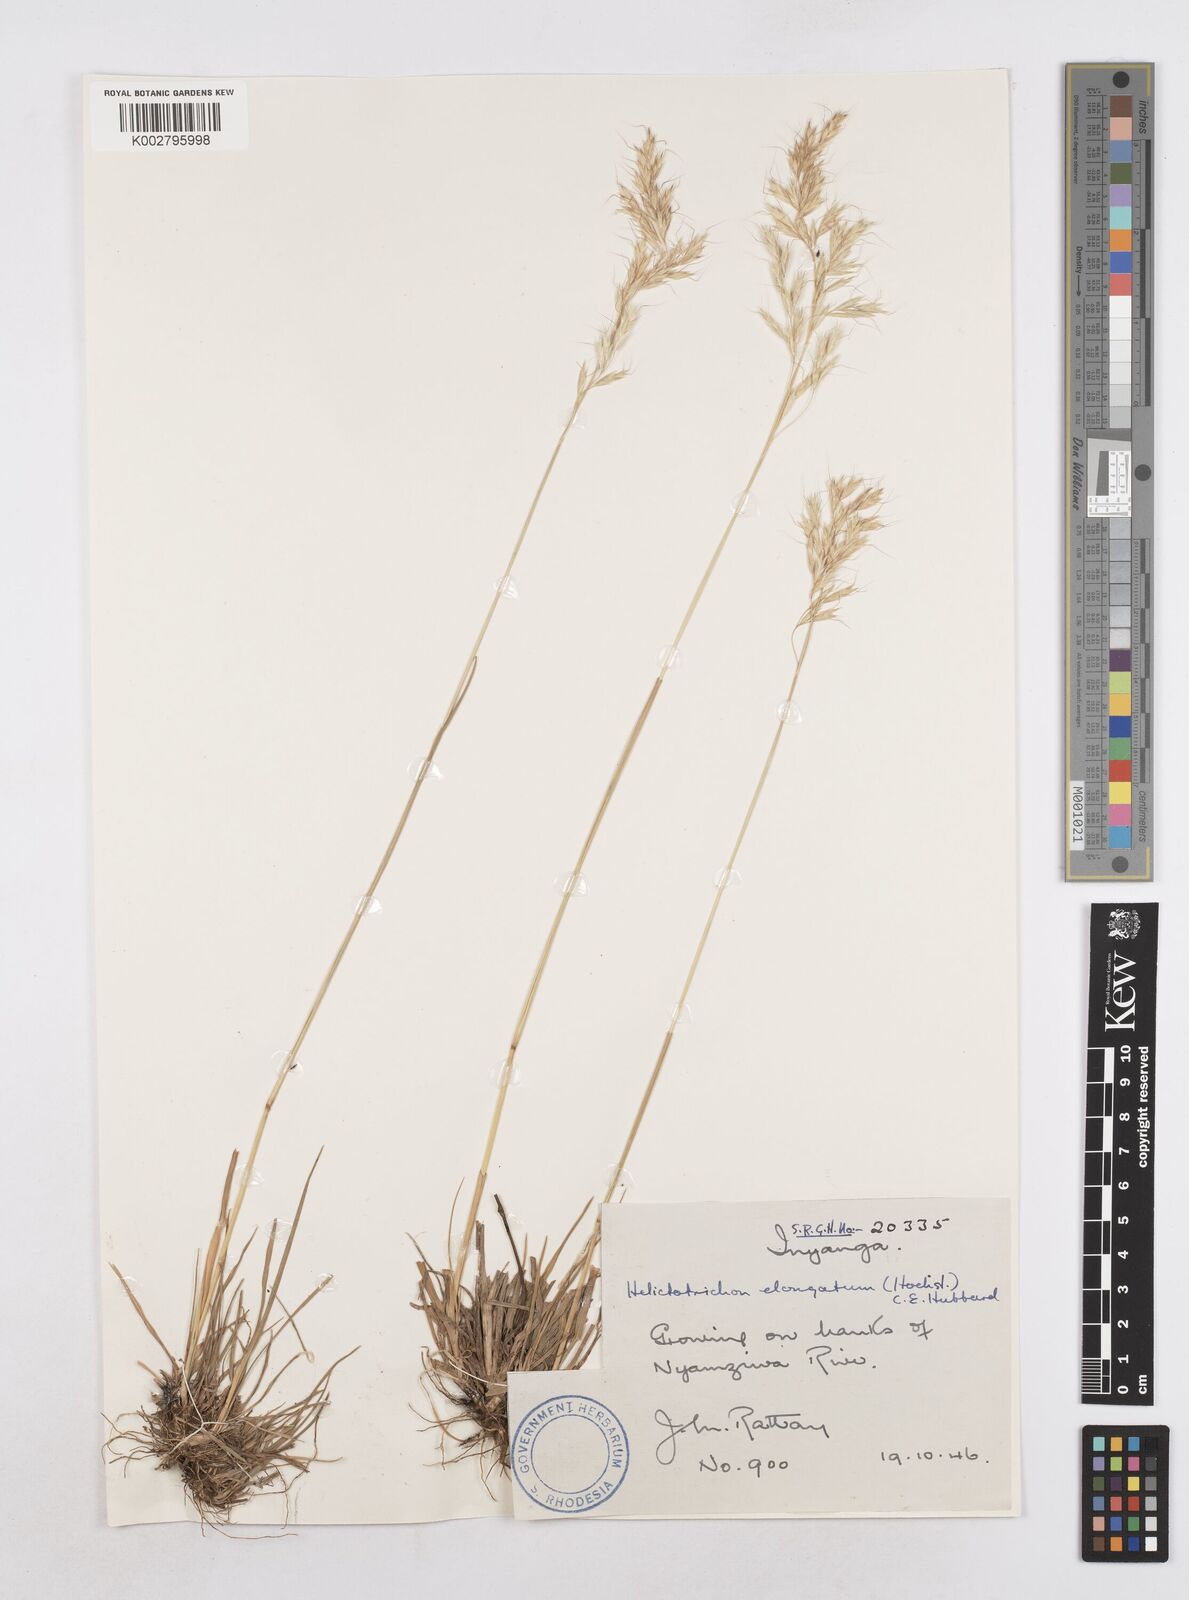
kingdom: Plantae
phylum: Tracheophyta
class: Liliopsida
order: Poales
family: Poaceae
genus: Trisetopsis
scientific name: Trisetopsis elongata
